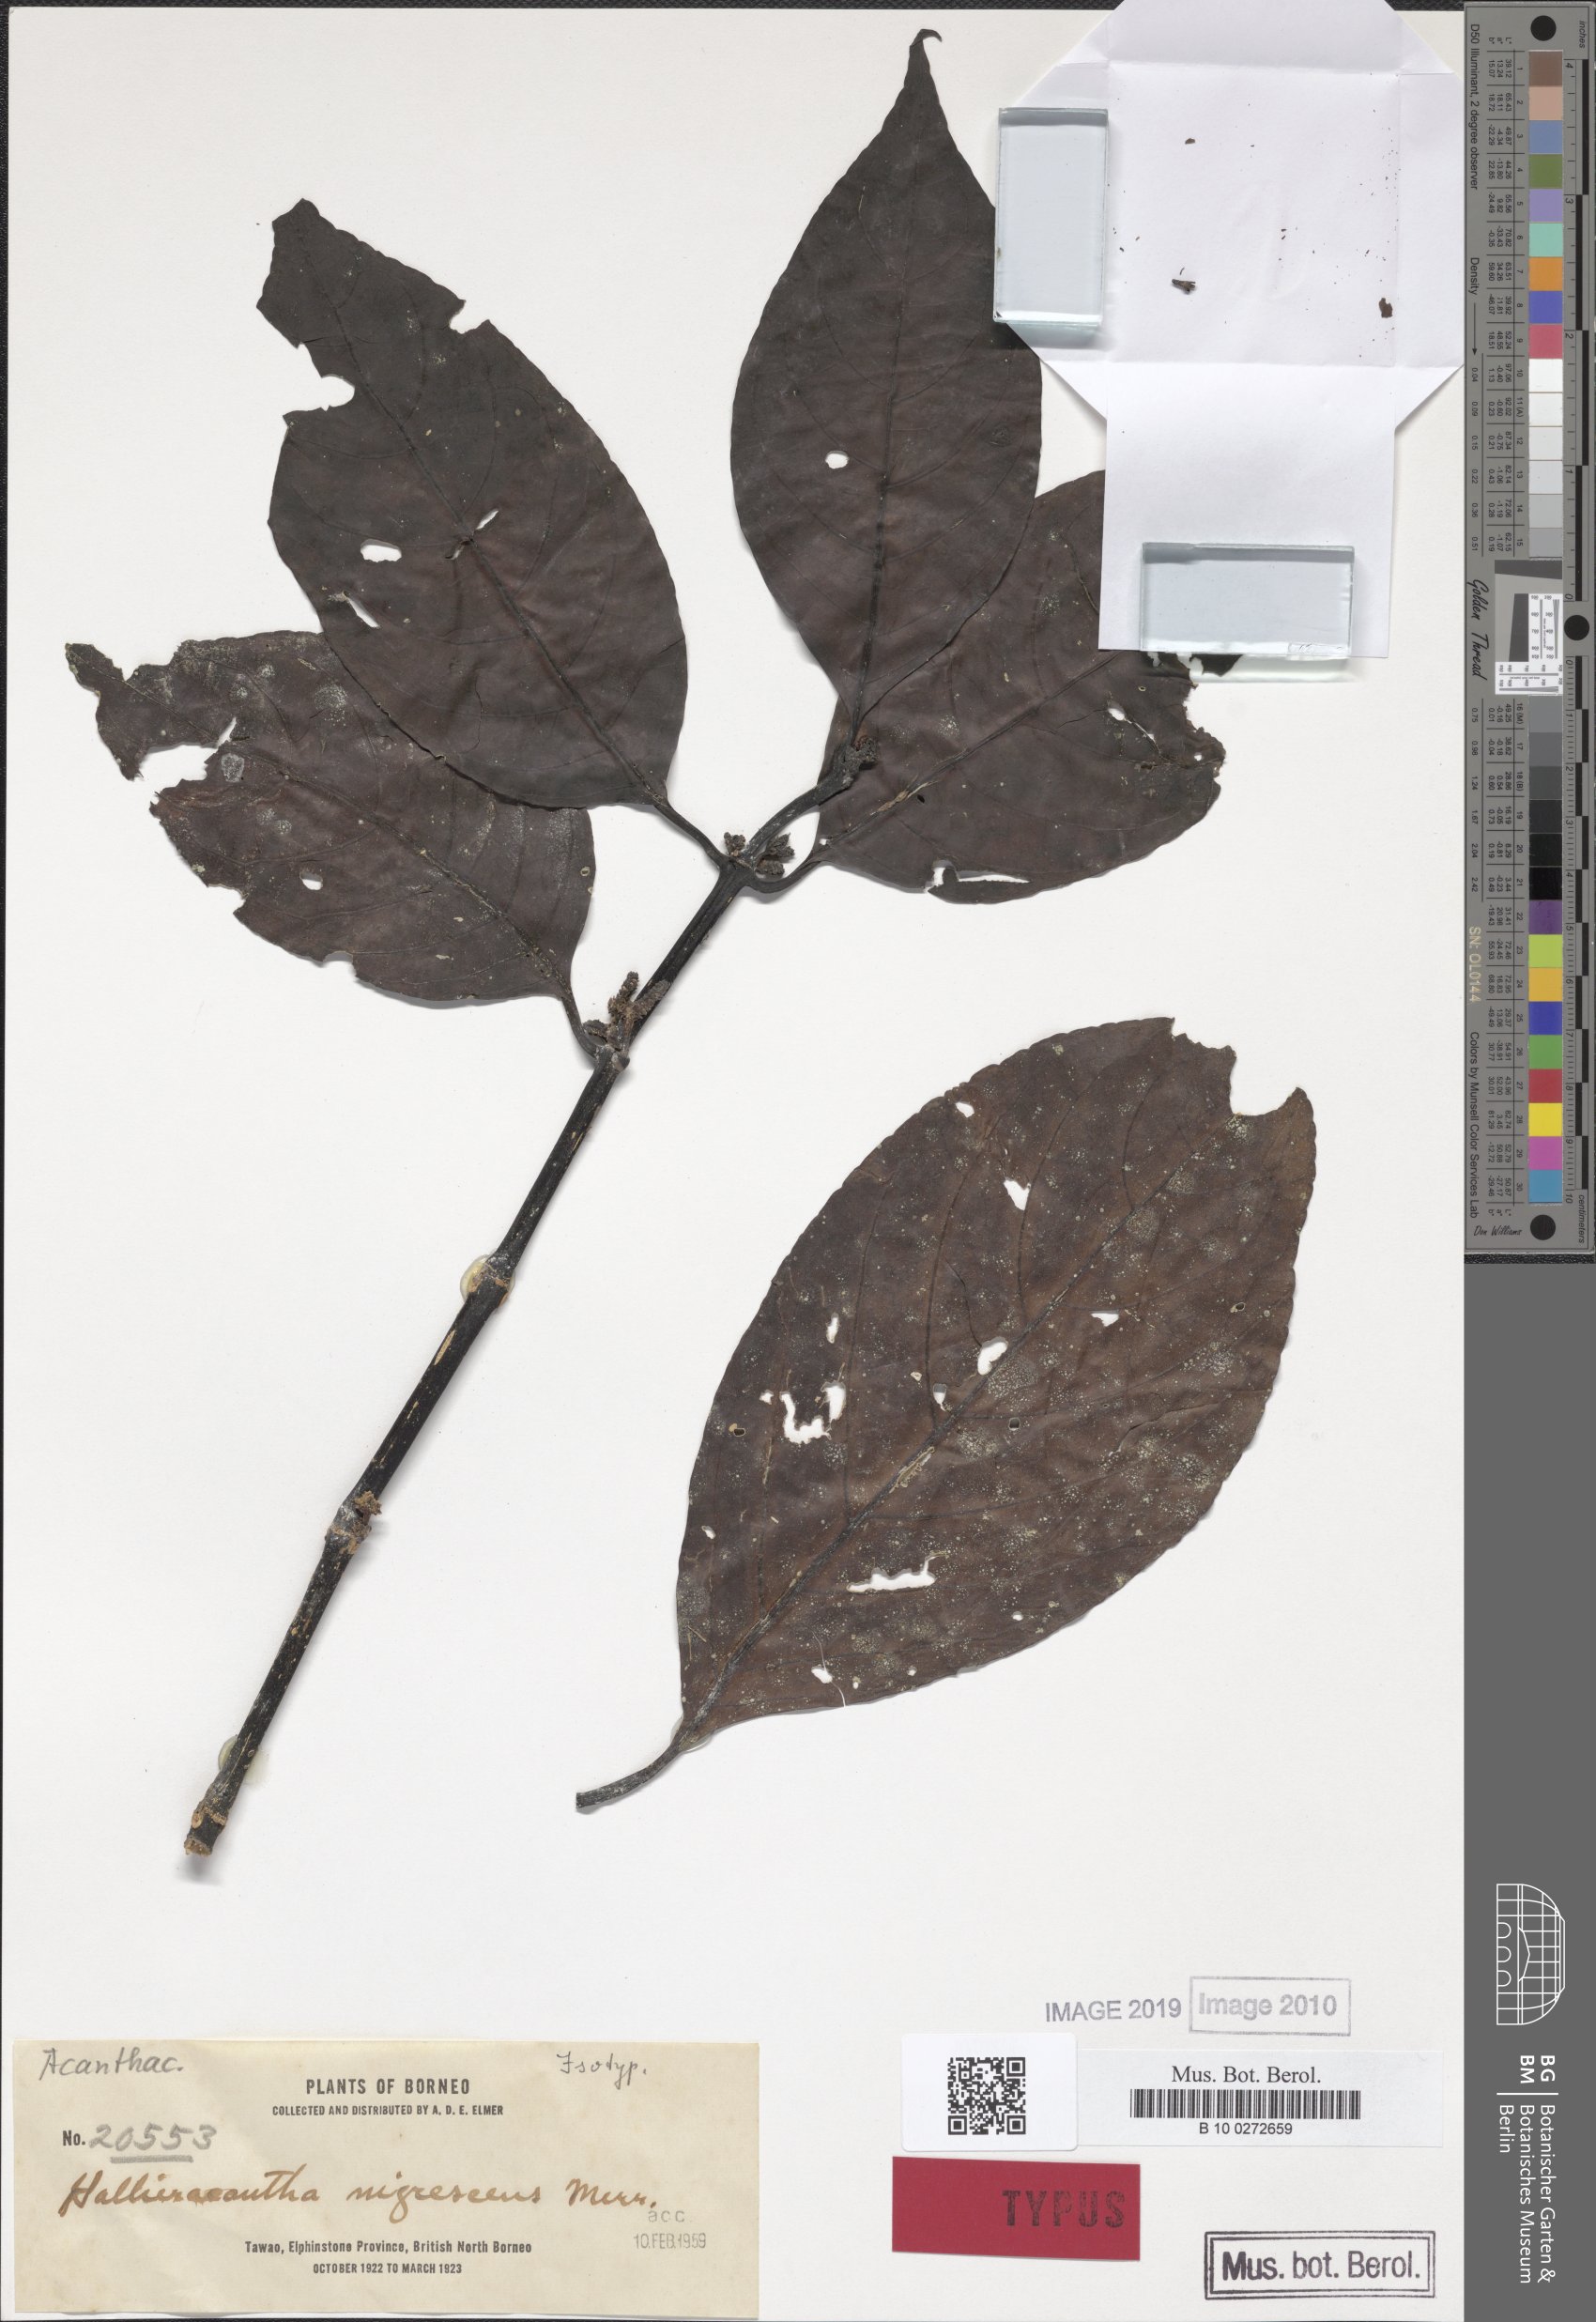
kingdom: Plantae
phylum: Tracheophyta
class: Magnoliopsida
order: Lamiales
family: Acanthaceae
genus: Ptyssiglottis
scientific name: Ptyssiglottis nigrescens
